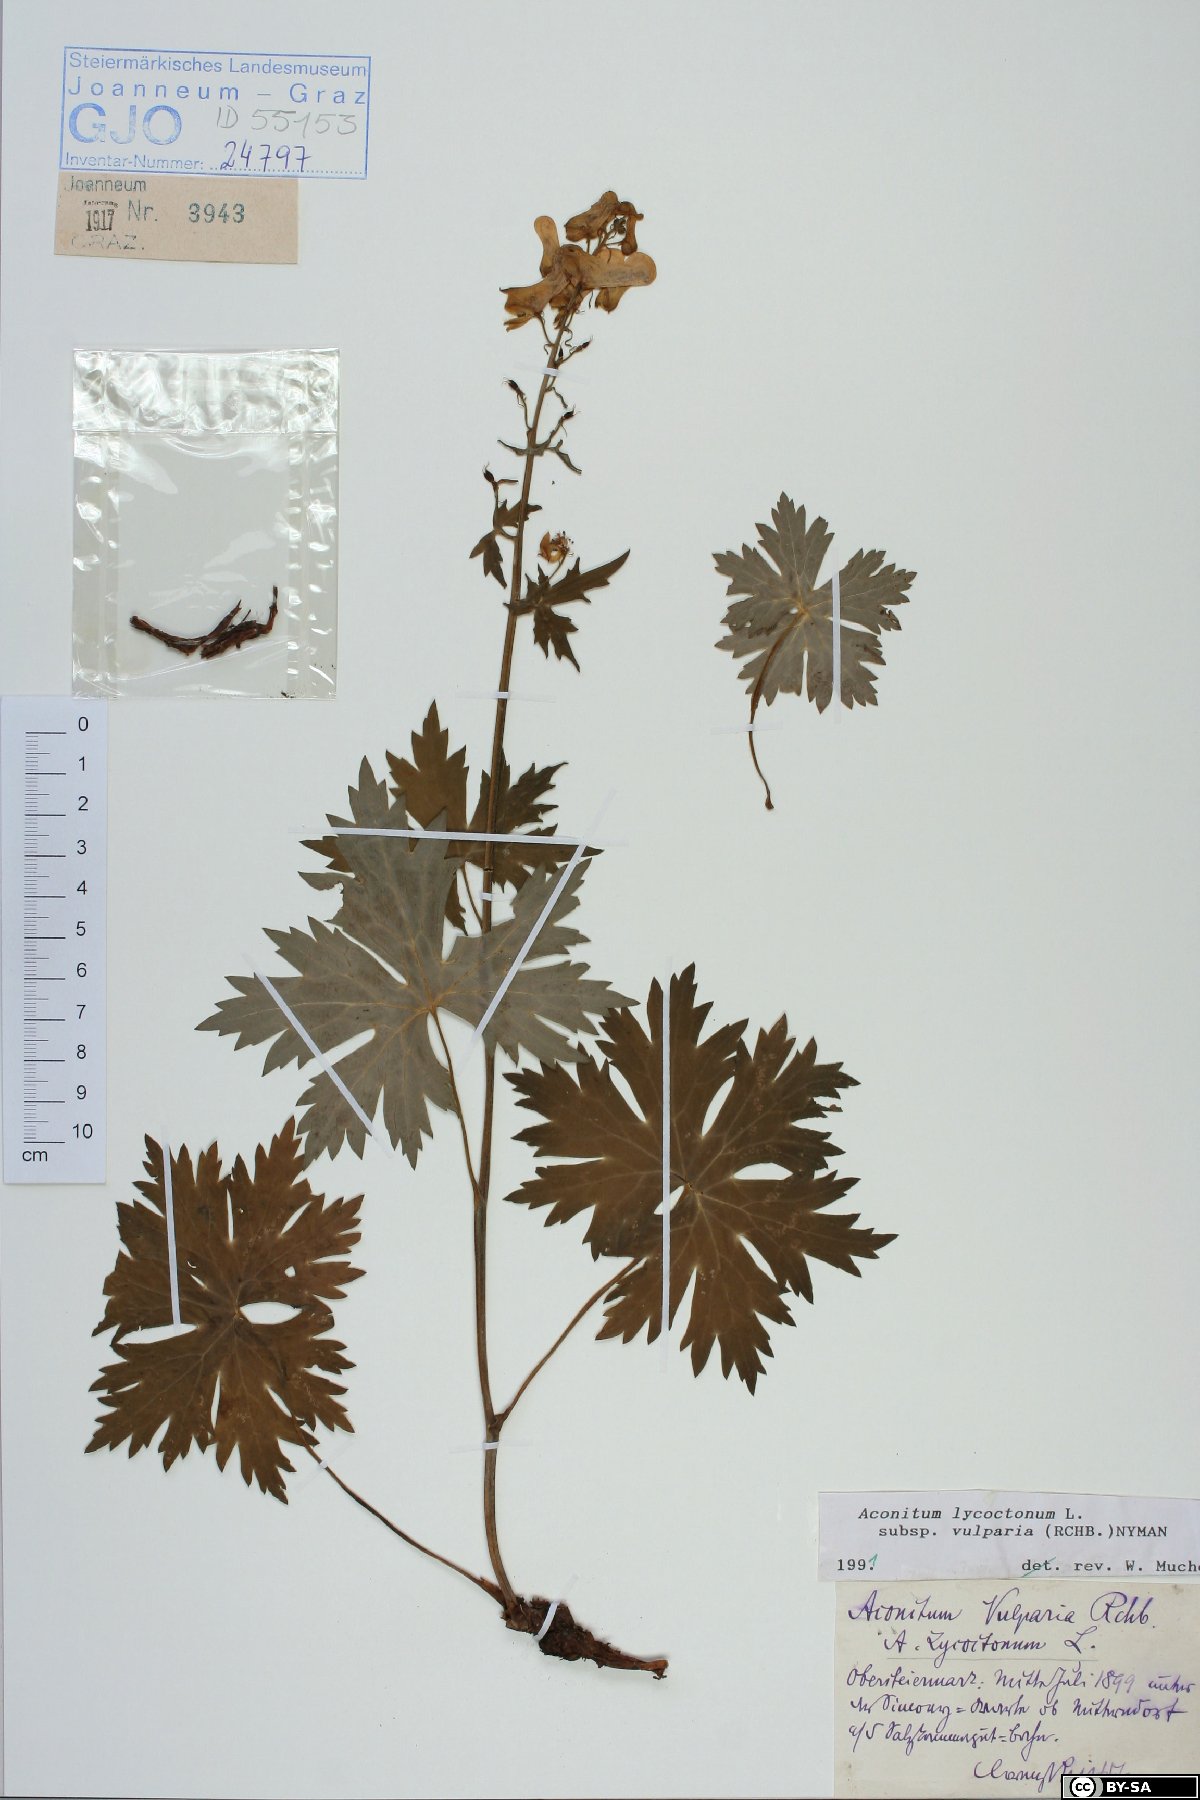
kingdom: Plantae
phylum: Tracheophyta
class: Magnoliopsida
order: Ranunculales
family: Ranunculaceae
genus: Aconitum
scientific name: Aconitum lycoctonum
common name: Wolf's-bane
